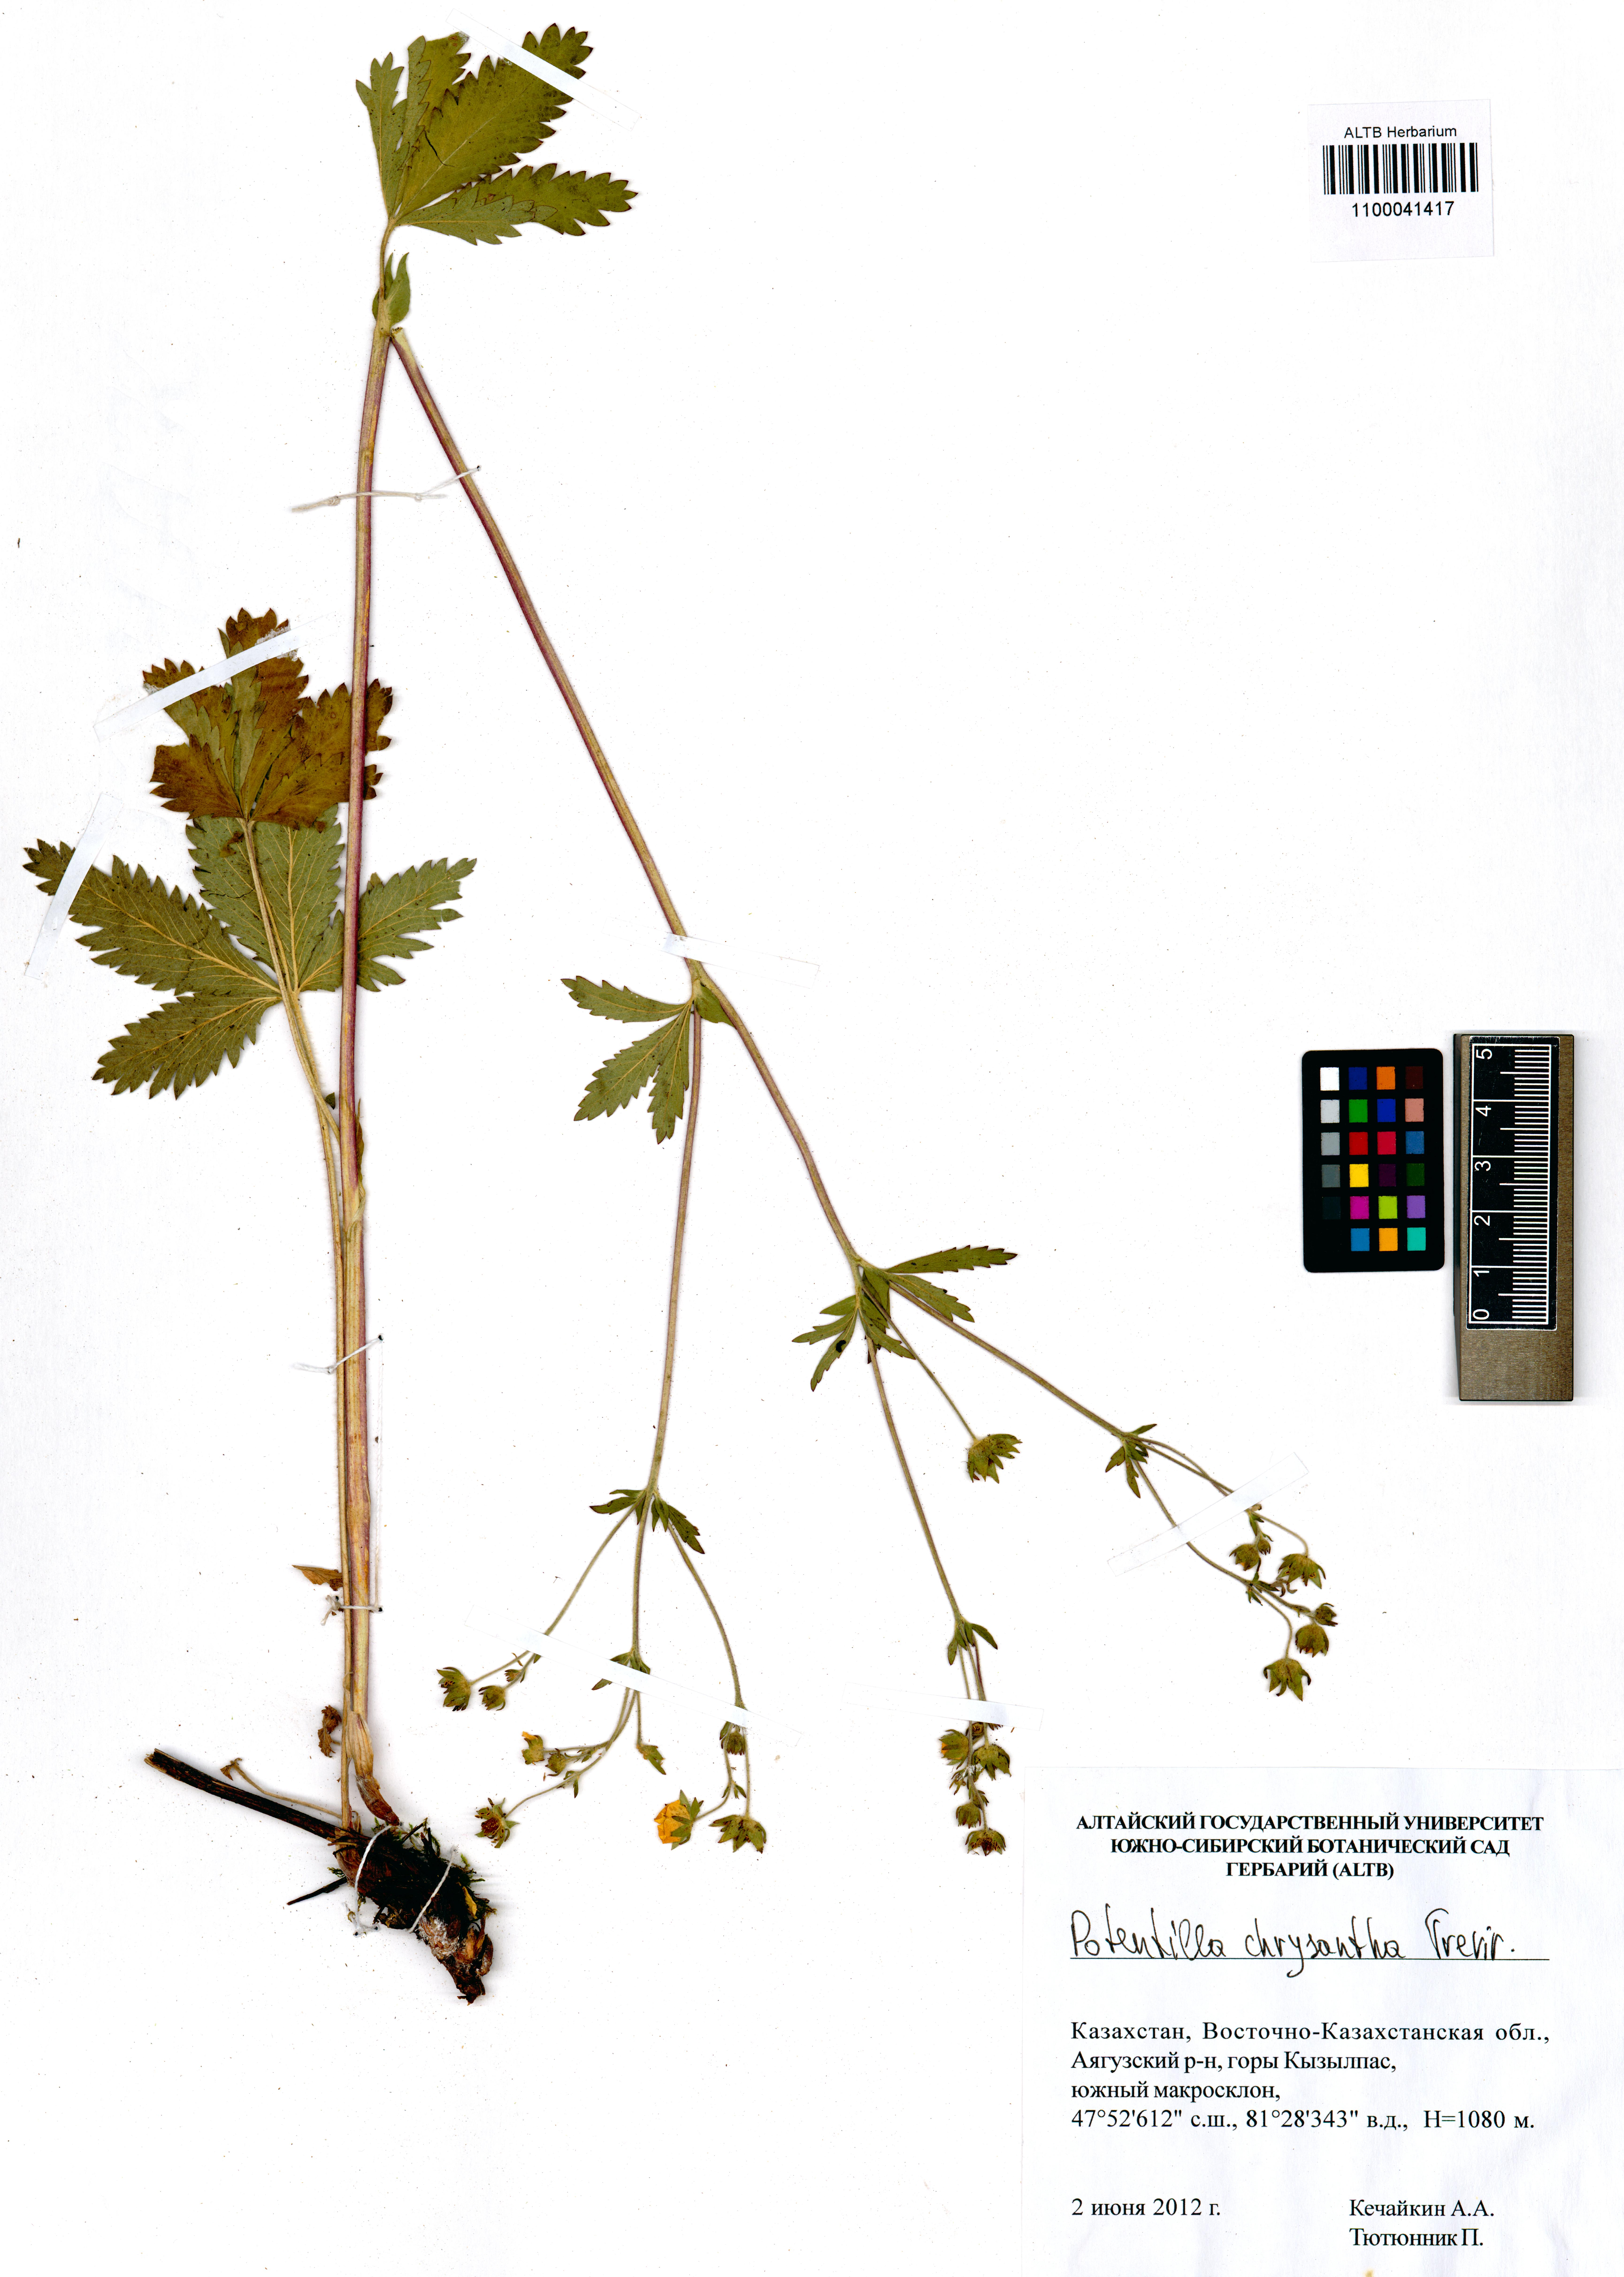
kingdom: Plantae
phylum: Tracheophyta
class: Magnoliopsida
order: Rosales
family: Rosaceae
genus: Potentilla
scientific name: Potentilla chrysantha
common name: Thuringian cinquefoil
